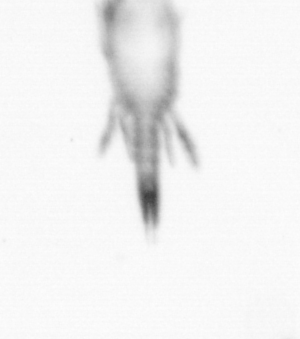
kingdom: Animalia
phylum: Arthropoda
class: Copepoda
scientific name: Copepoda
